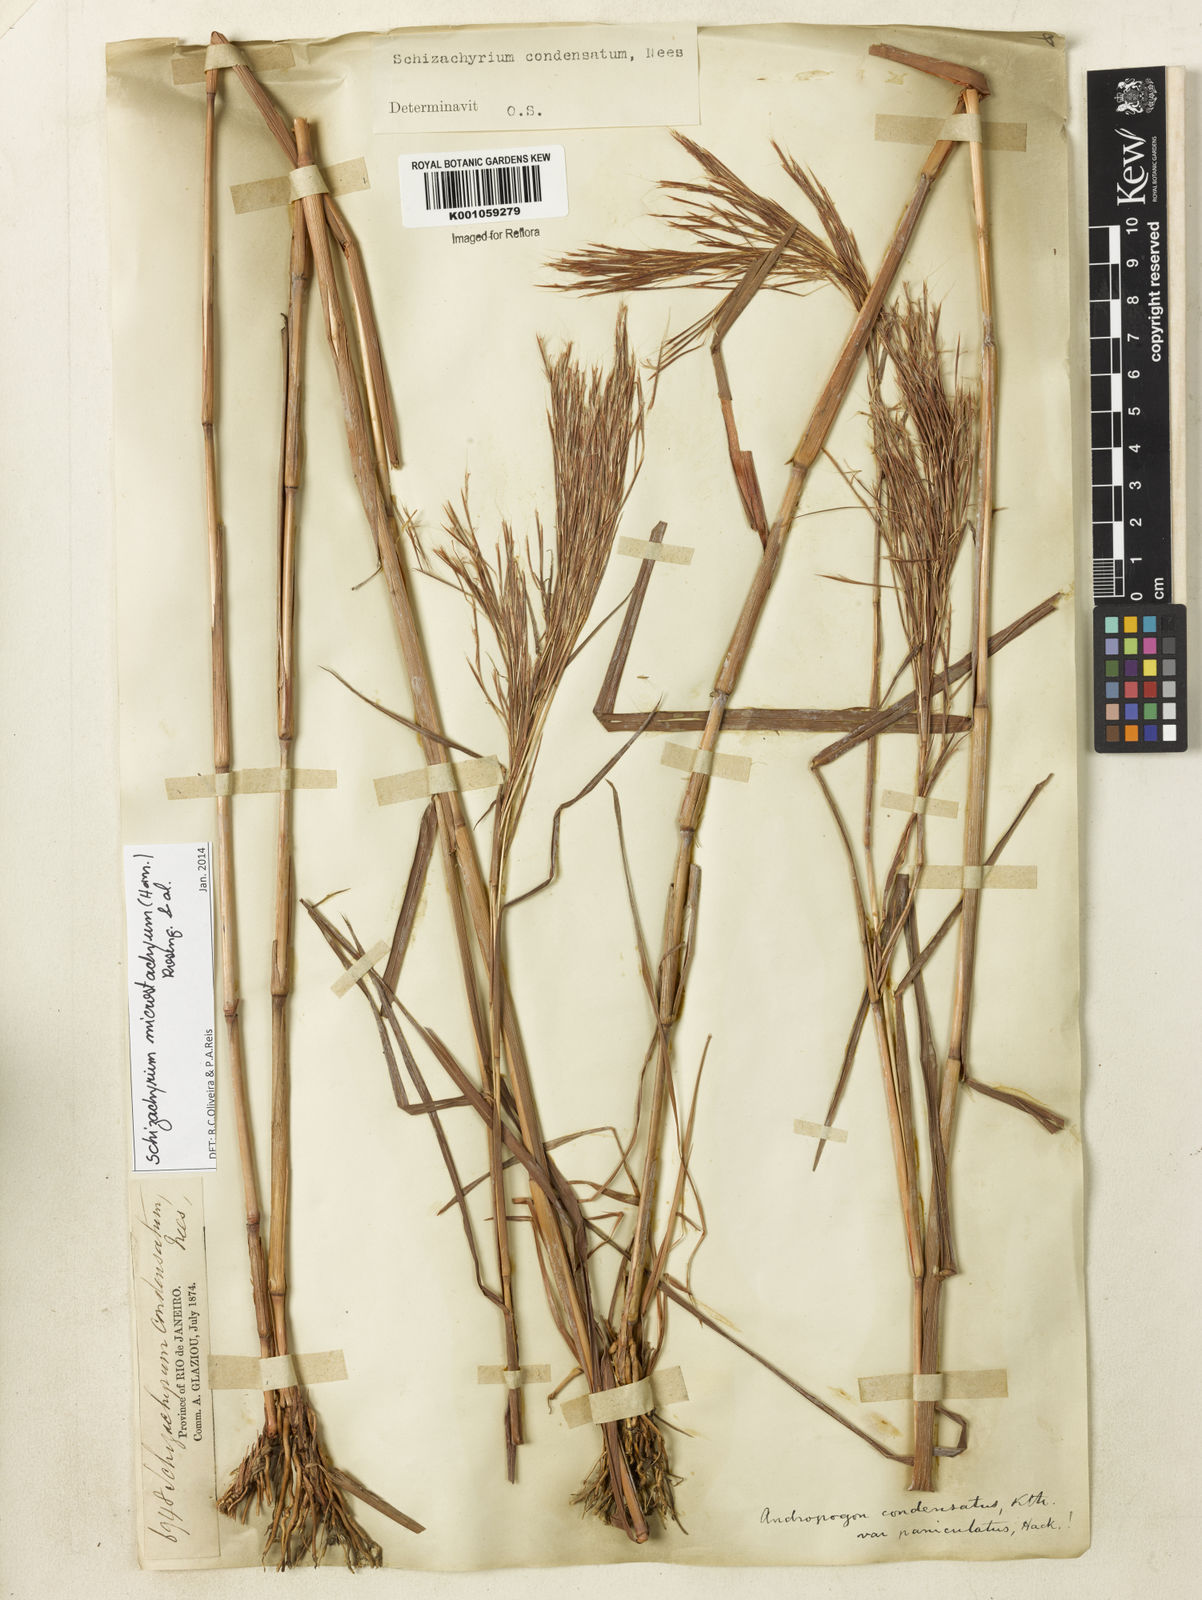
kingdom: Plantae
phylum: Tracheophyta
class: Liliopsida
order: Poales
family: Poaceae
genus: Schizachyrium
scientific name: Schizachyrium
